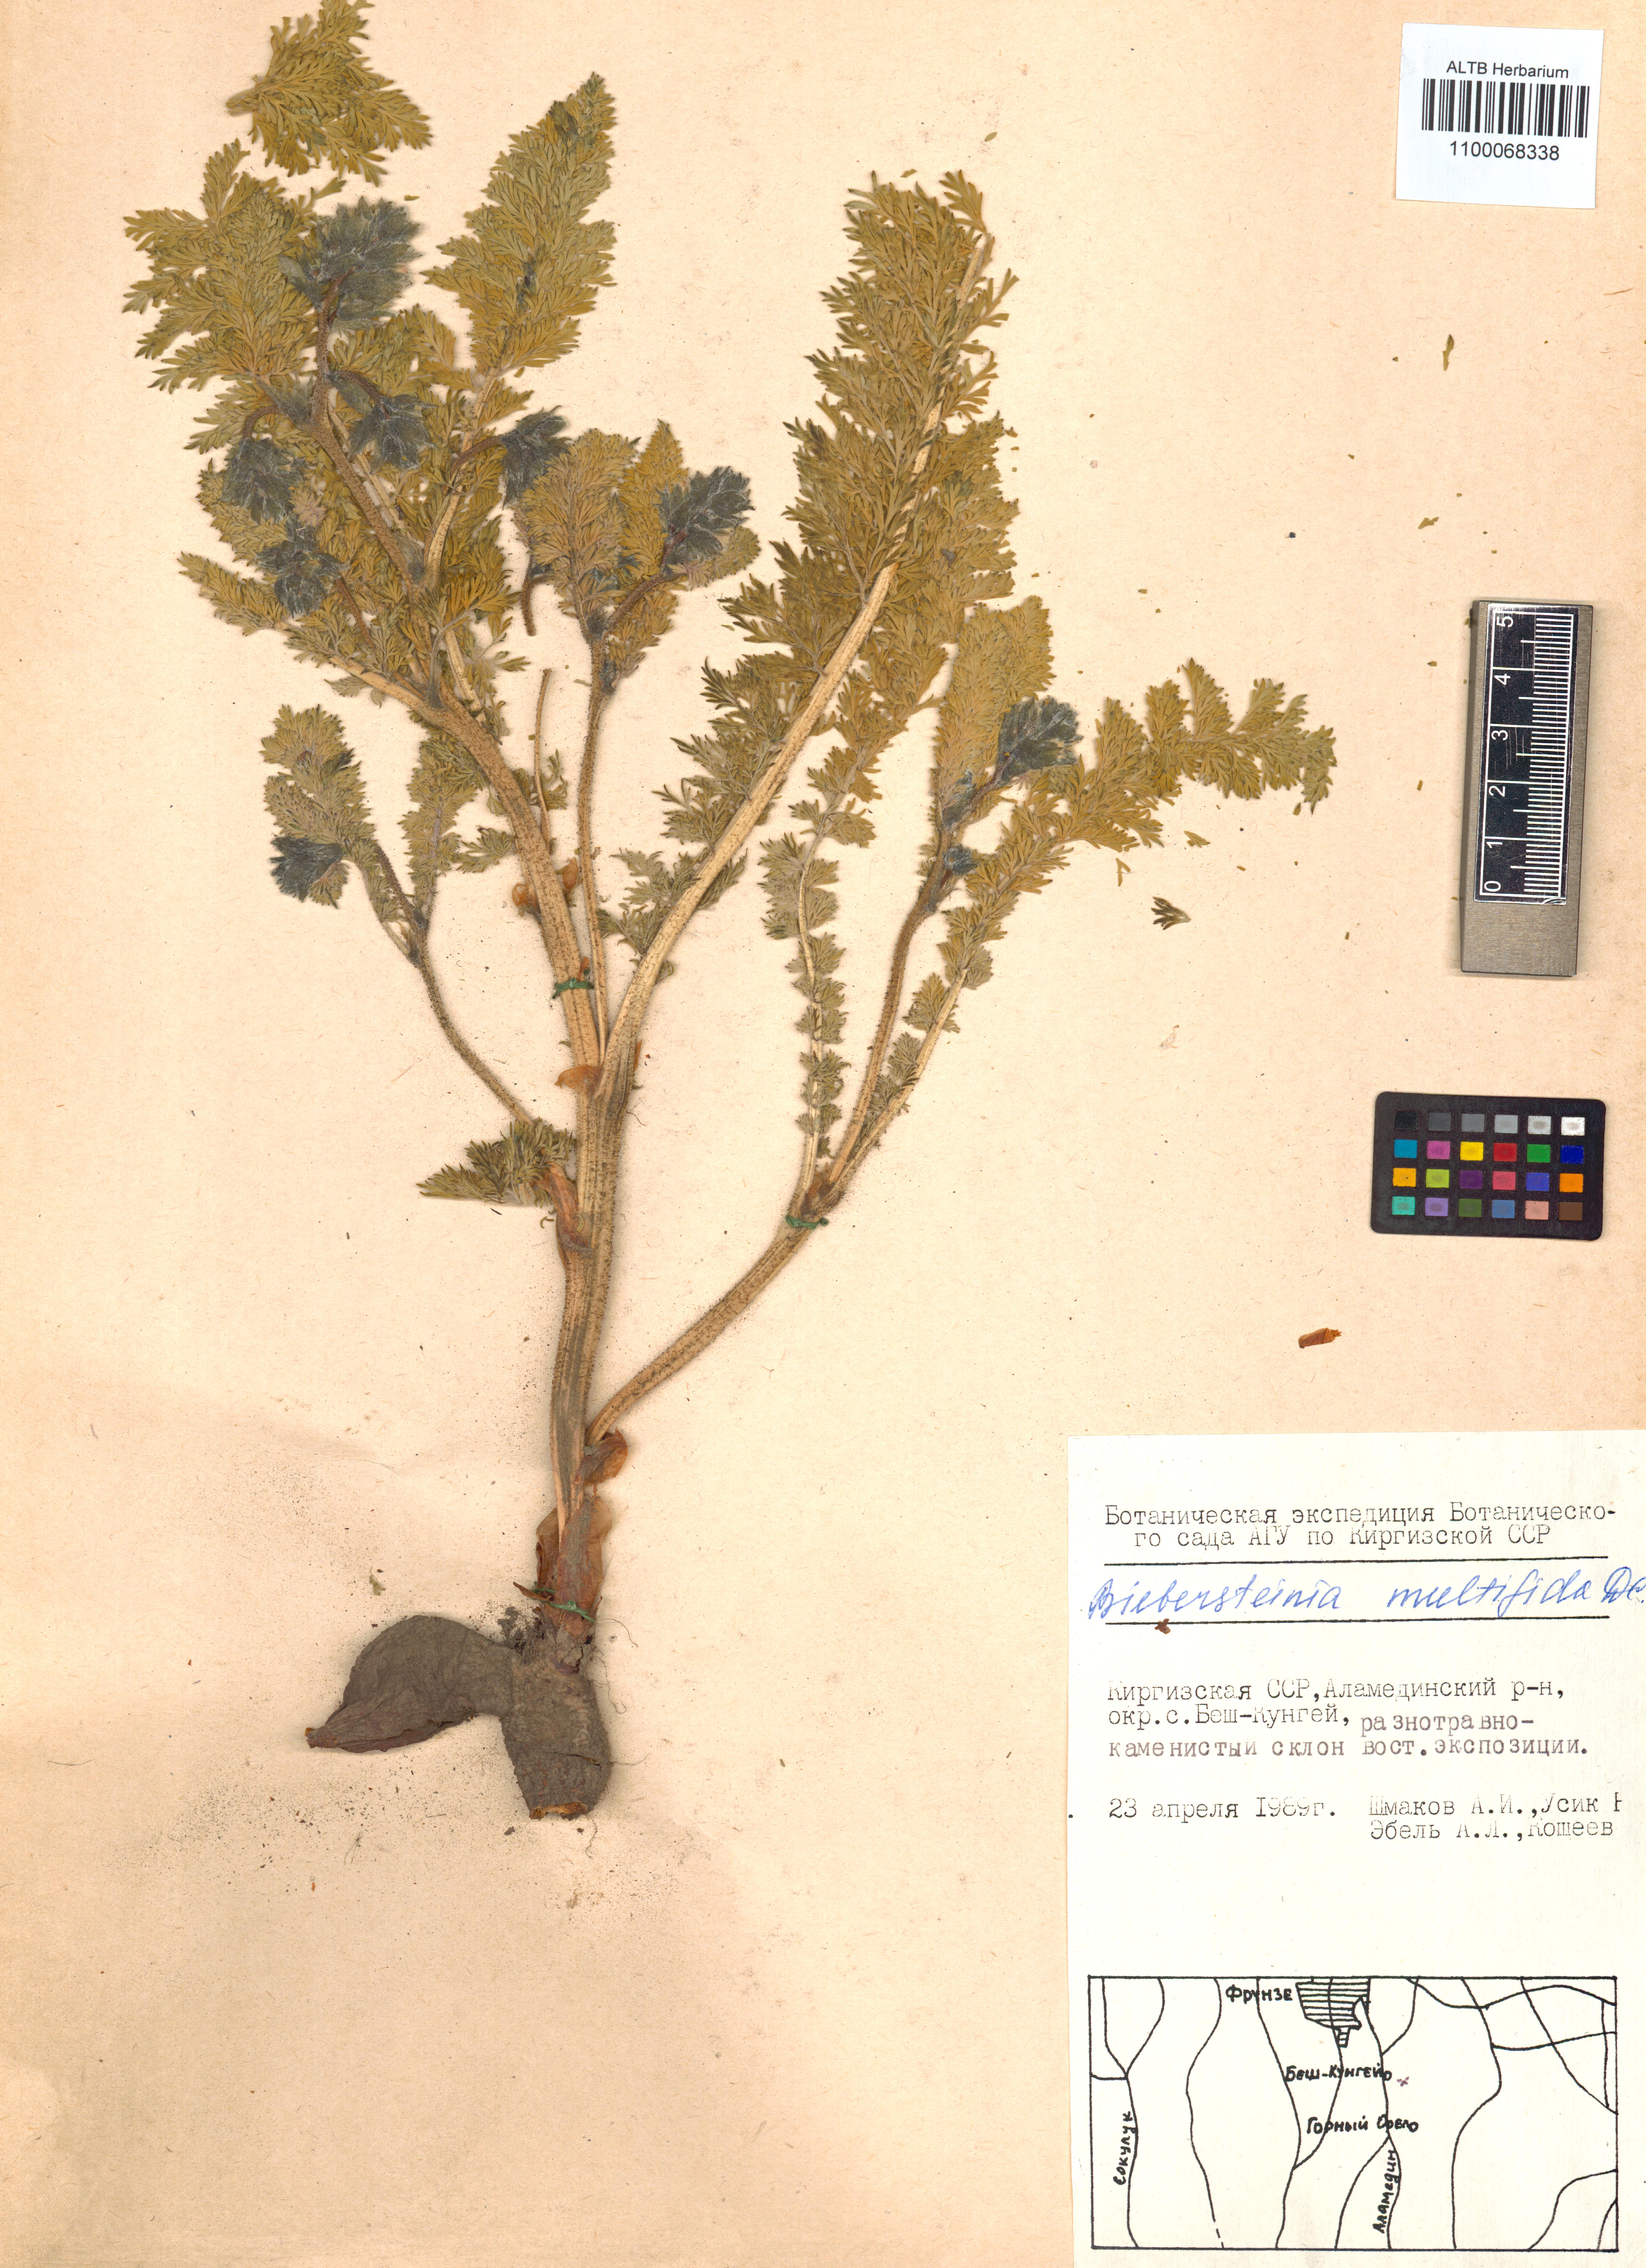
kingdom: Plantae
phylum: Tracheophyta
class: Magnoliopsida
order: Sapindales
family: Biebersteiniaceae
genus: Biebersteinia
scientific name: Biebersteinia multifida
